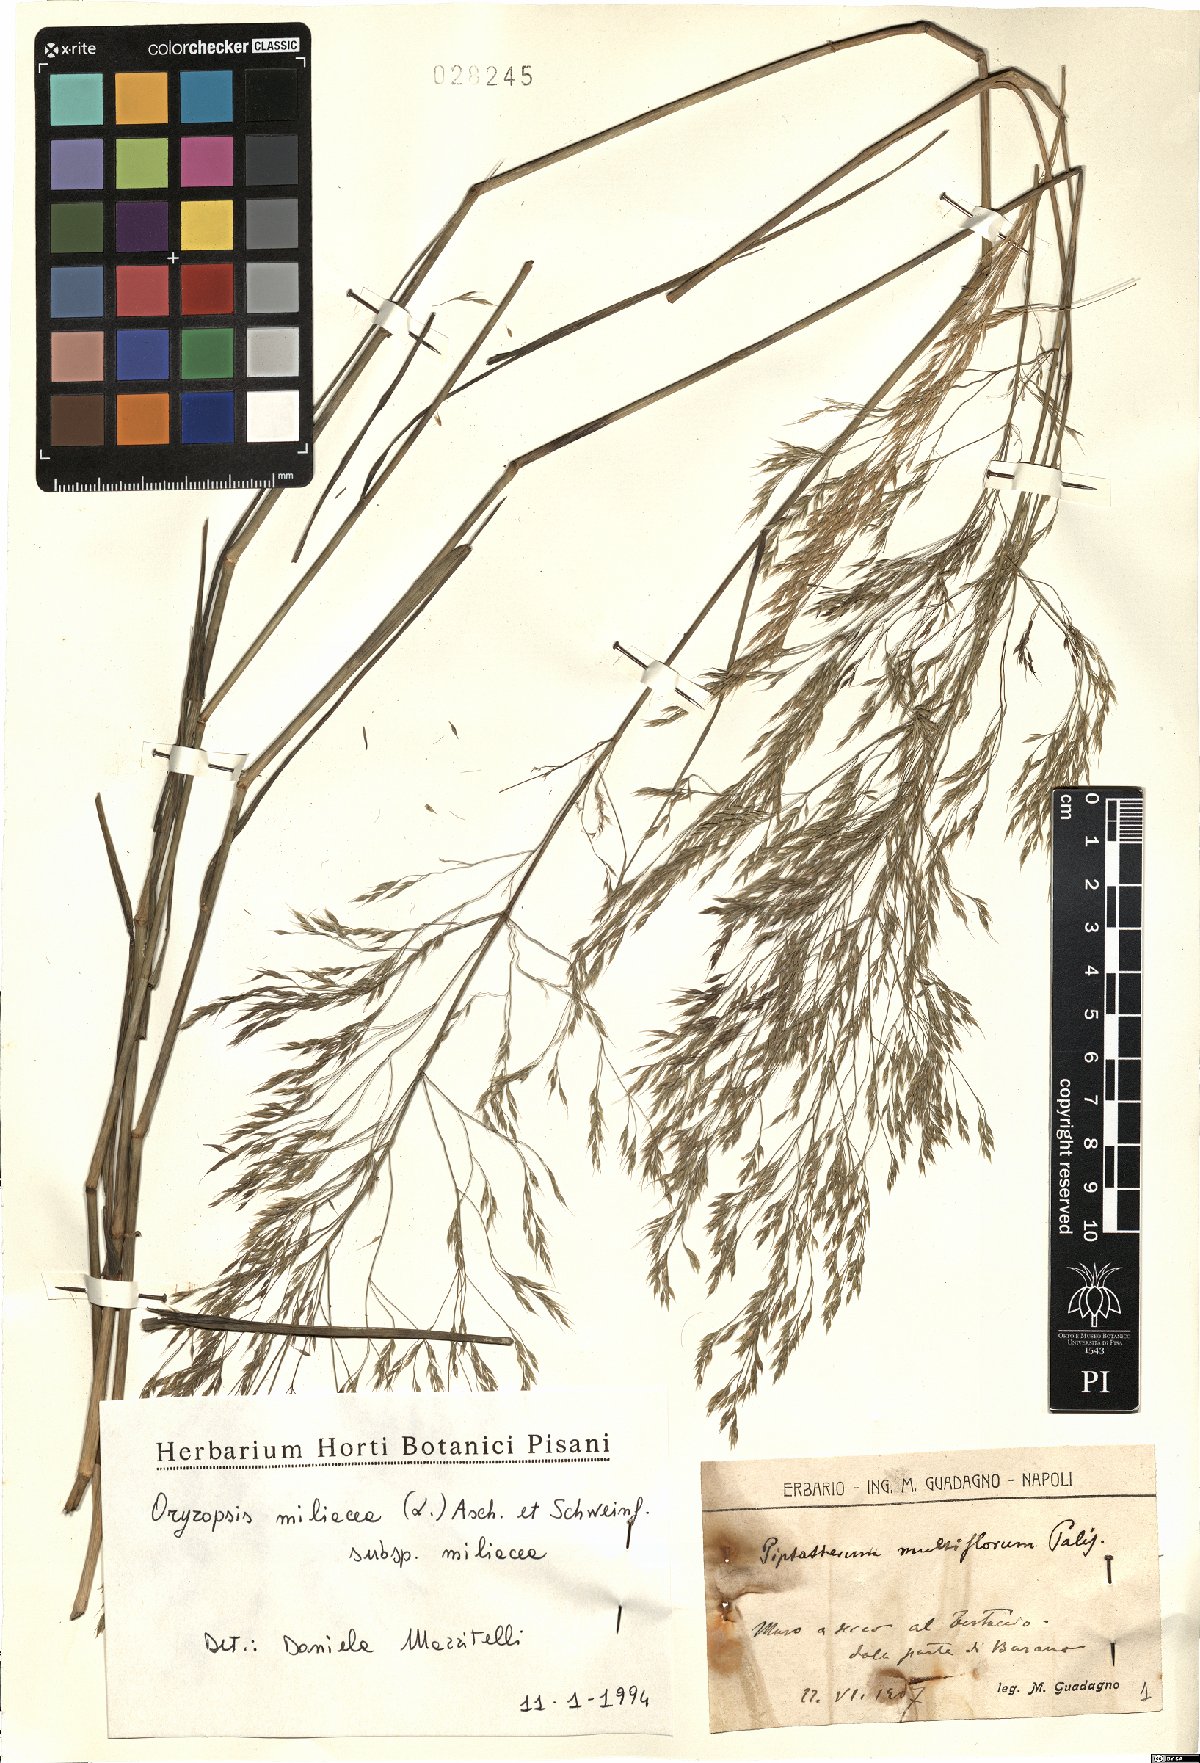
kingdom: Plantae
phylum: Tracheophyta
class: Liliopsida
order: Poales
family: Poaceae
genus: Oryzopsis
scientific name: Oryzopsis miliacea
